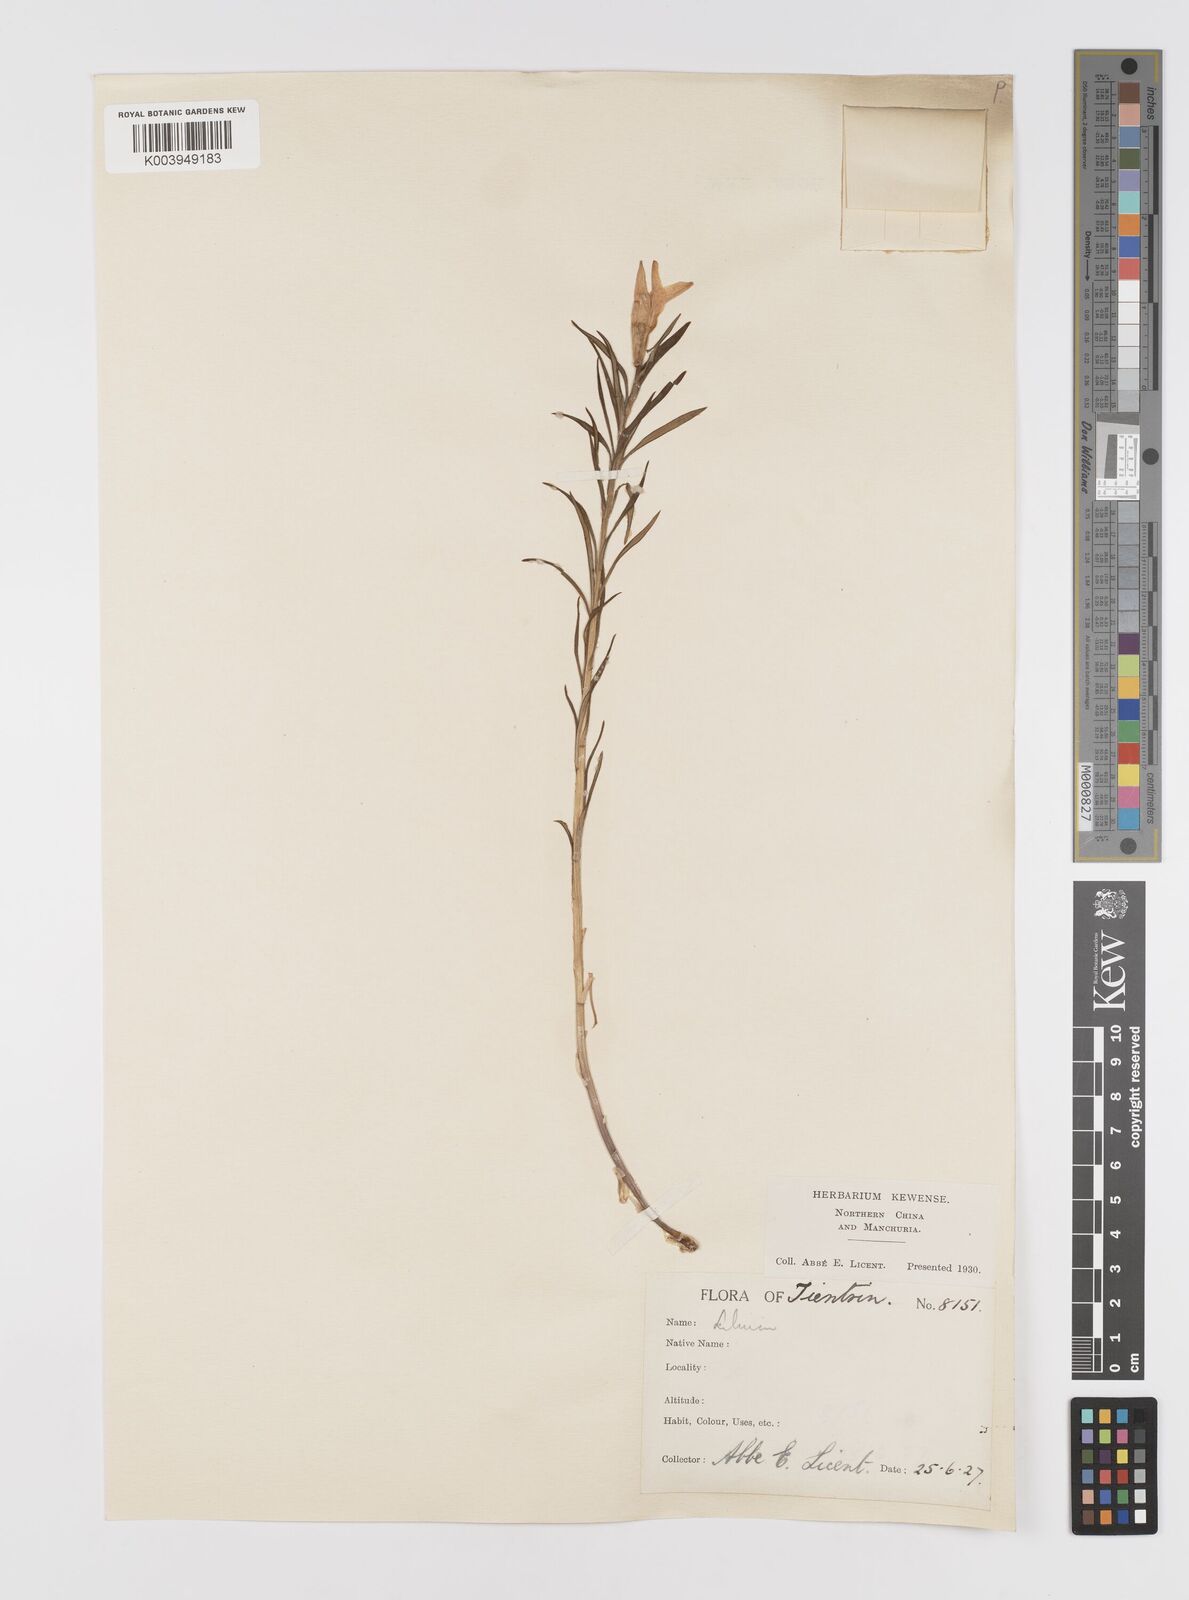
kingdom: Plantae
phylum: Tracheophyta
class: Liliopsida
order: Liliales
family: Liliaceae
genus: Lilium
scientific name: Lilium concolor
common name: Morning-star lily
